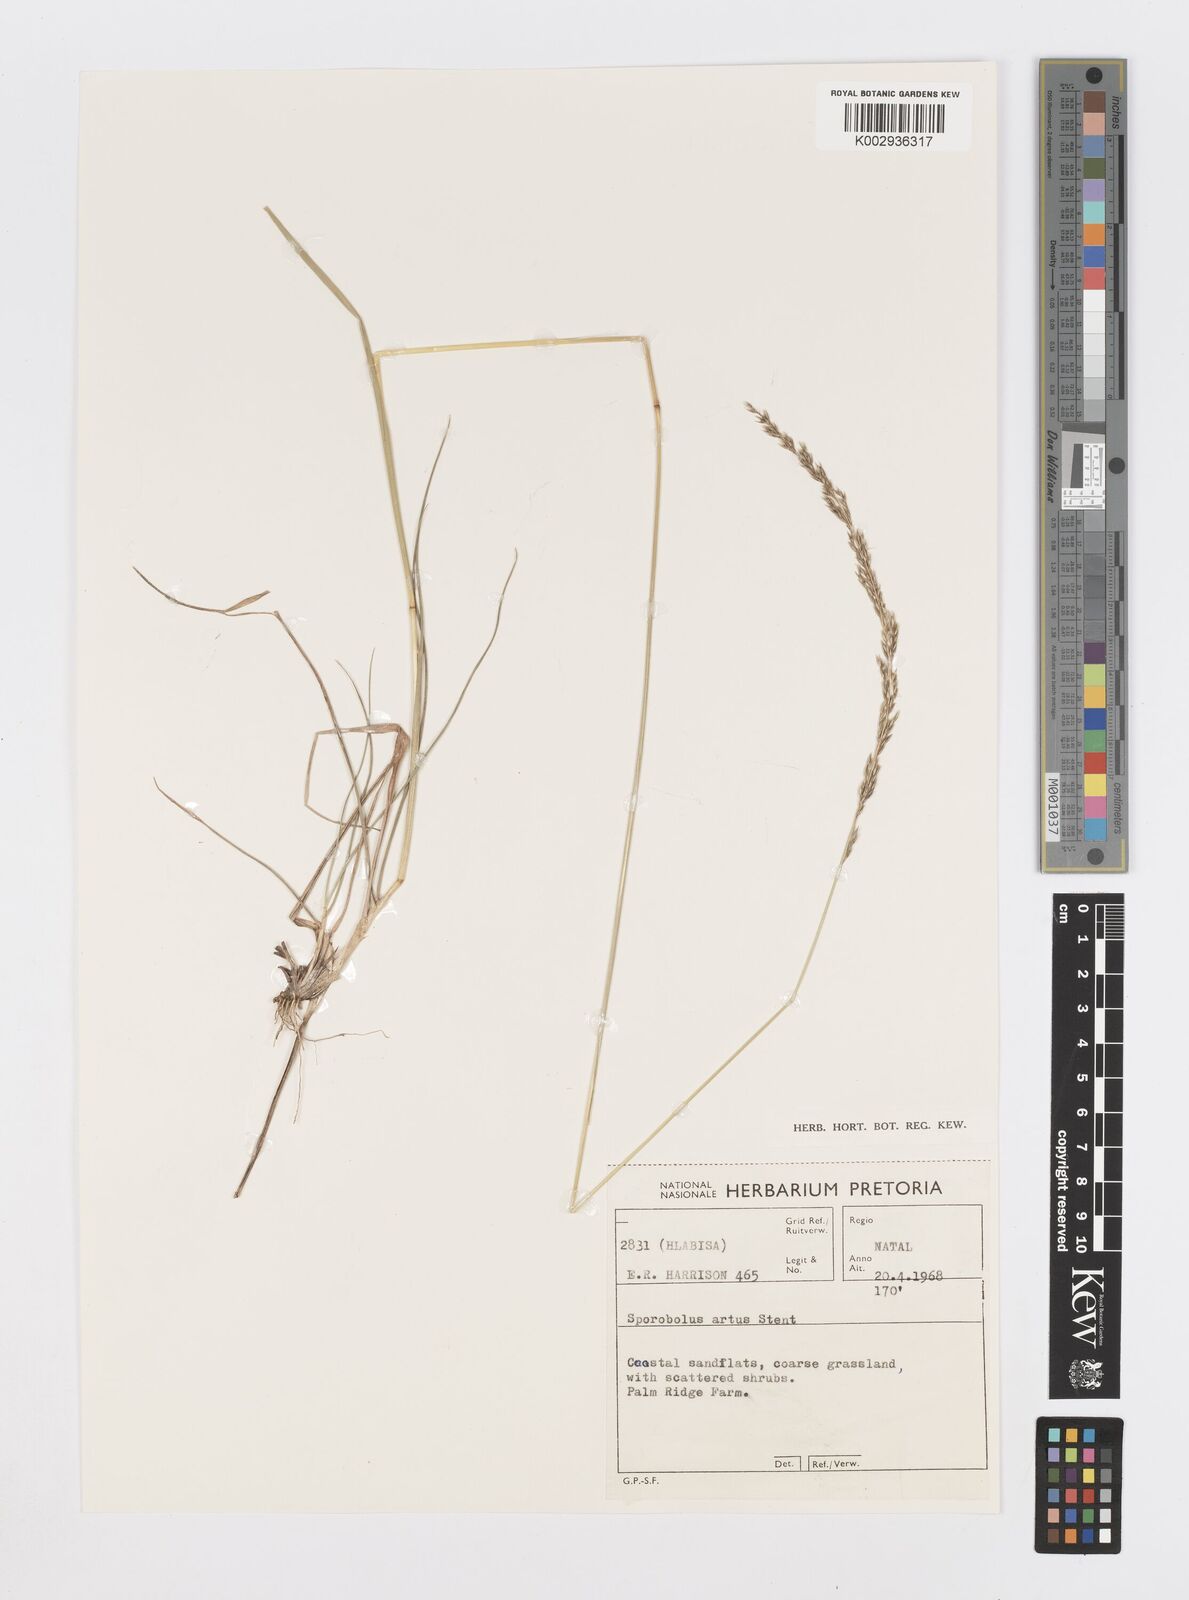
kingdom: Plantae
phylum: Tracheophyta
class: Liliopsida
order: Poales
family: Poaceae
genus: Sporobolus
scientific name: Sporobolus subulatus
